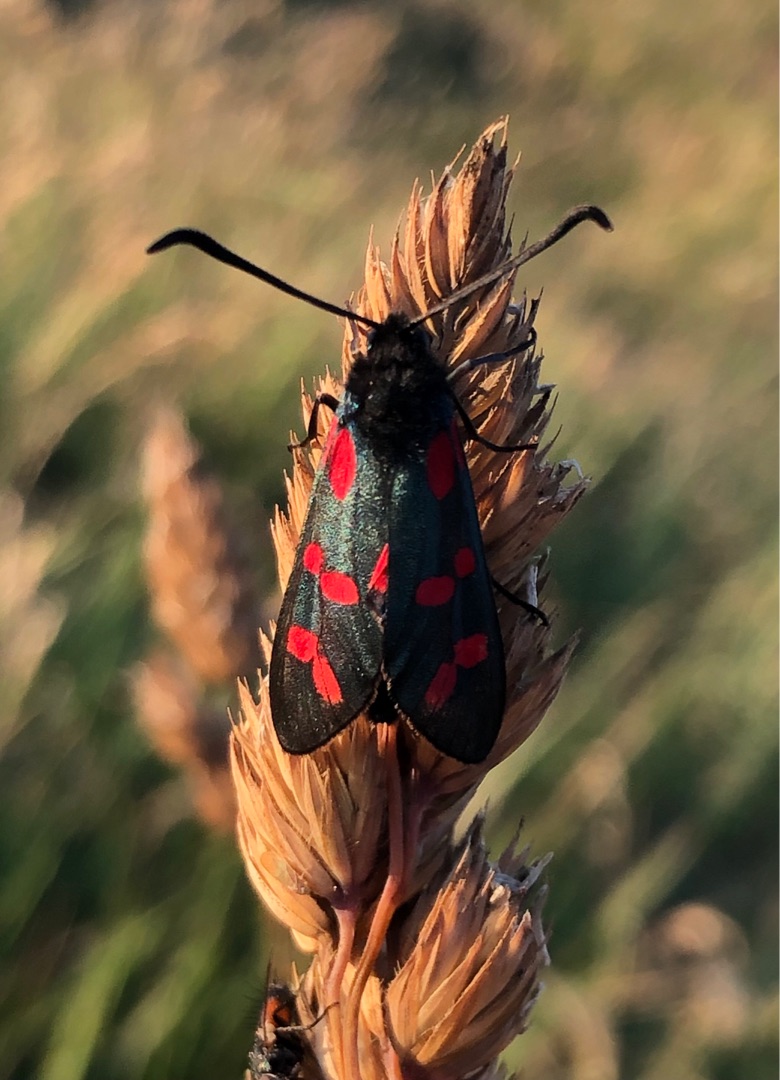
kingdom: Animalia
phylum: Arthropoda
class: Insecta
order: Lepidoptera
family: Zygaenidae
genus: Zygaena
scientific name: Zygaena filipendulae
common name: Seksplettet køllesværmer
